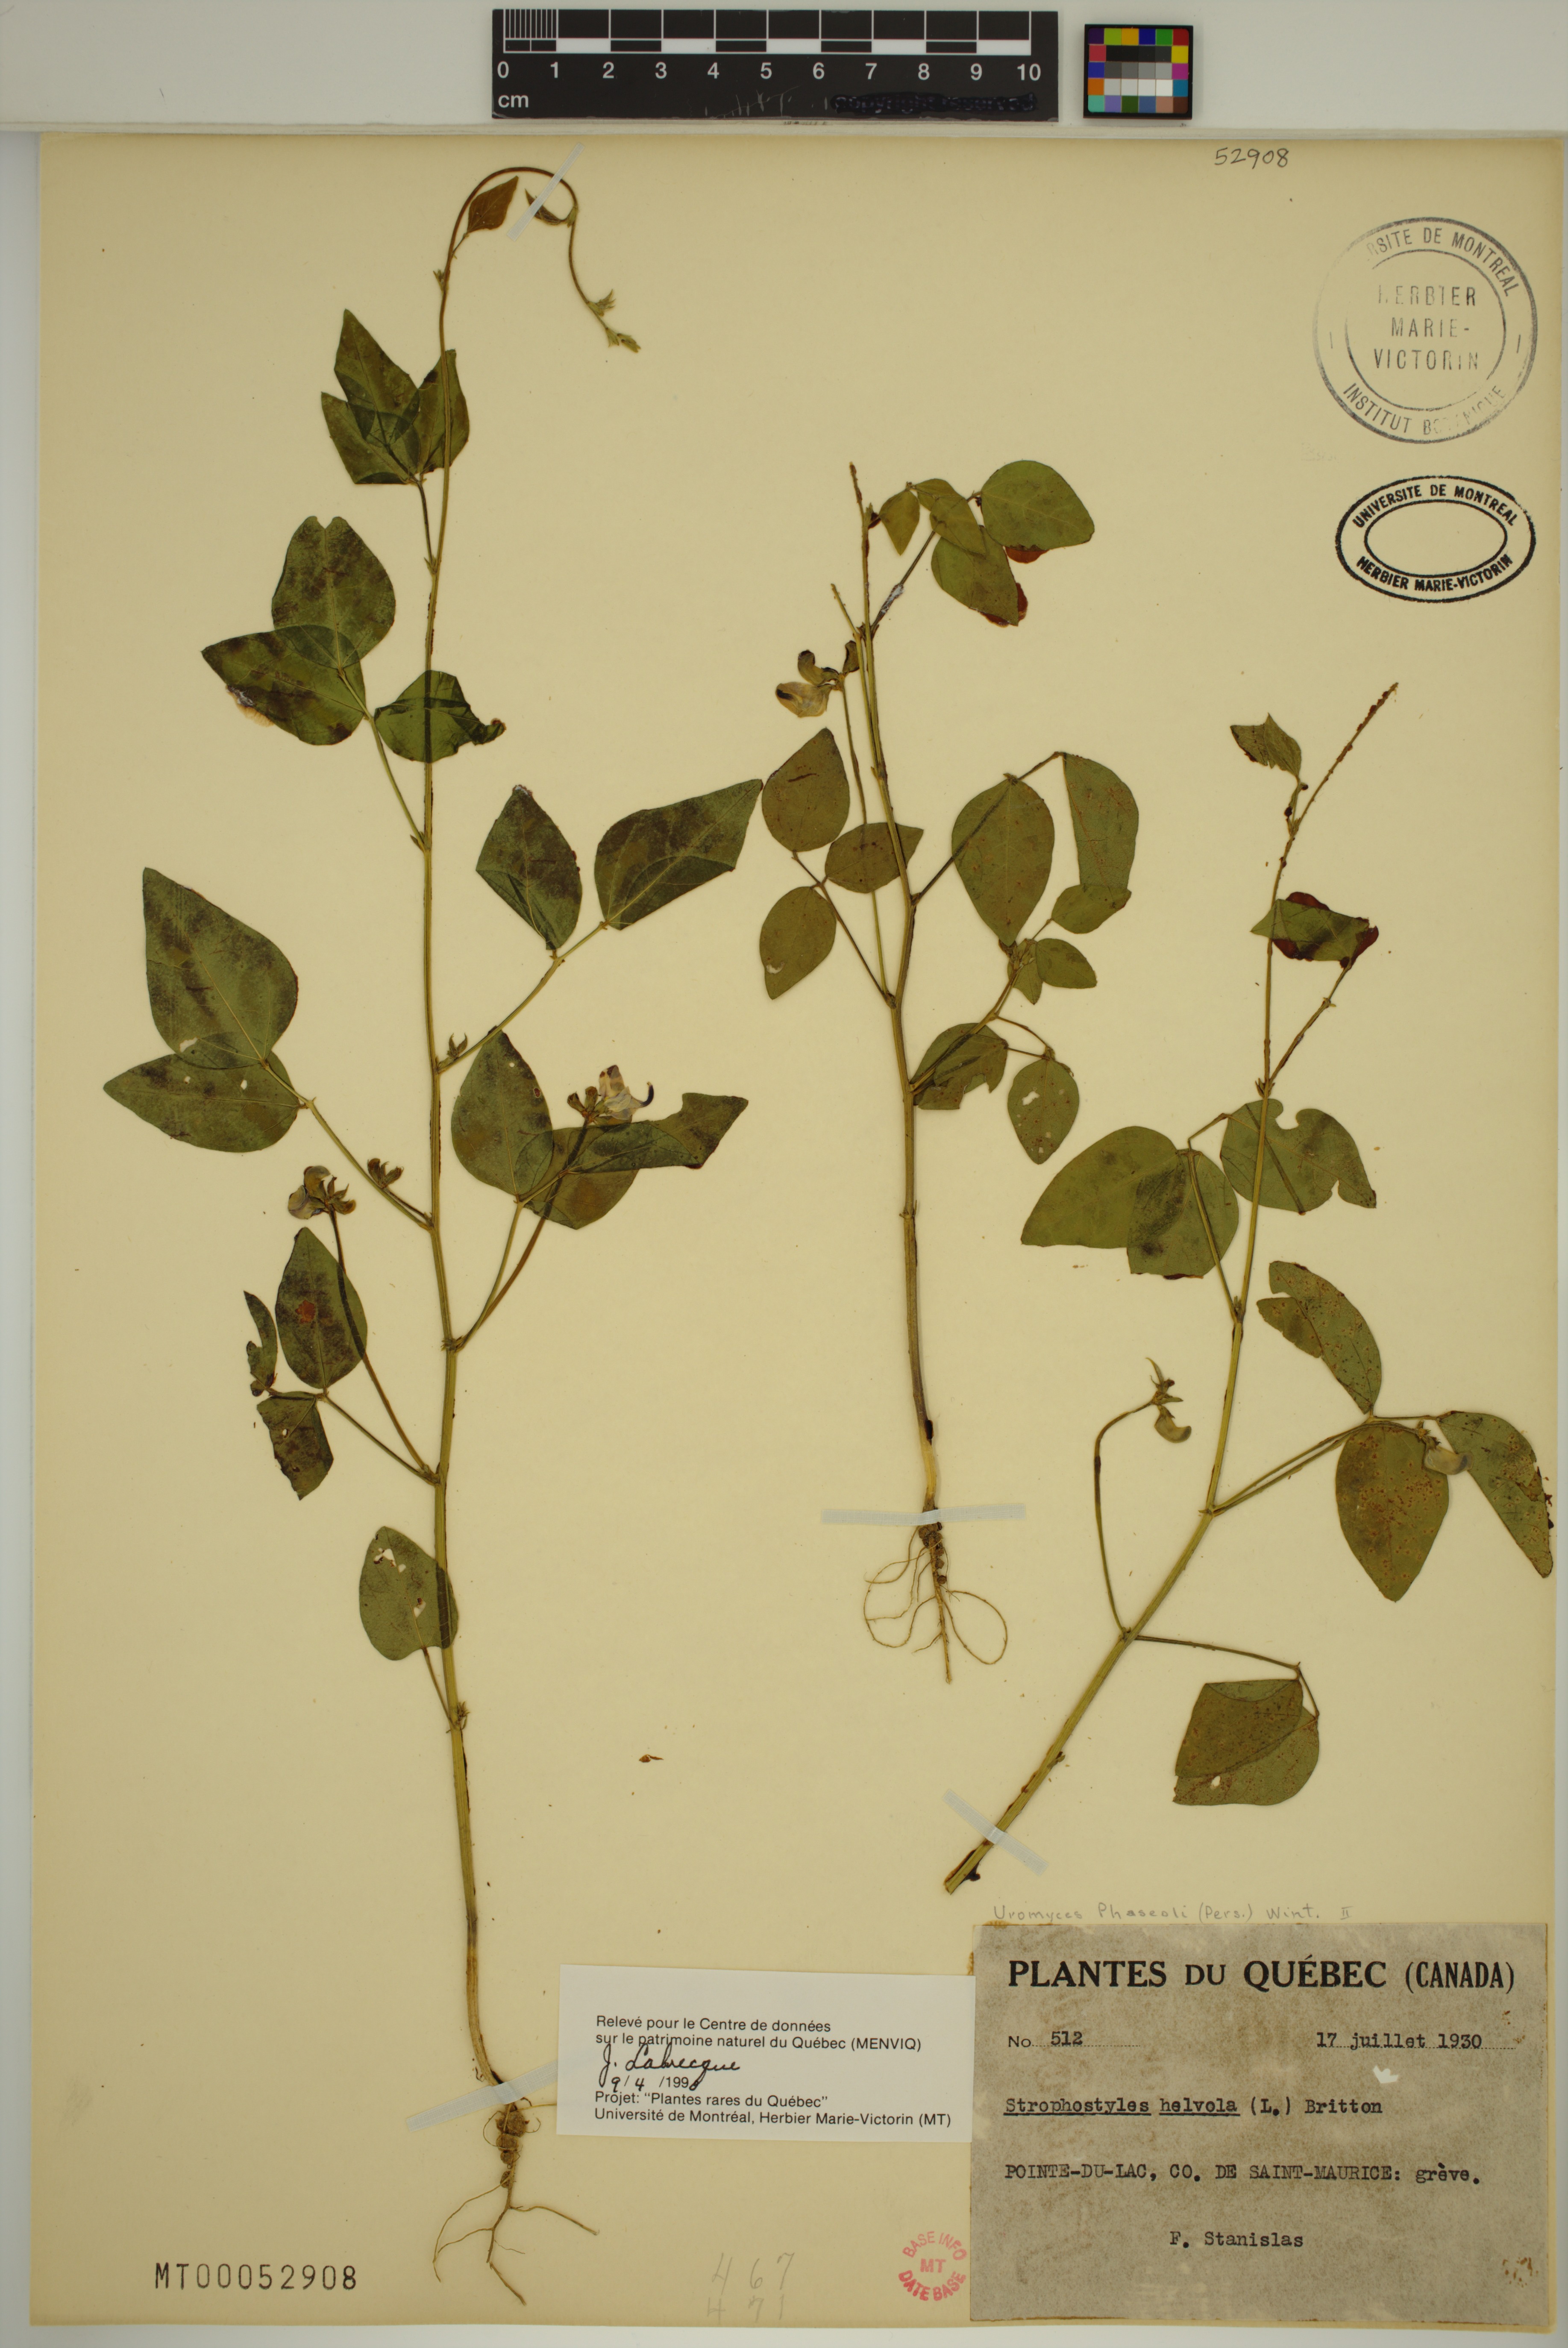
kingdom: Plantae
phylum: Tracheophyta
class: Magnoliopsida
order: Fabales
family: Fabaceae
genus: Strophostyles
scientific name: Strophostyles helvola
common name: Trailing wild bean
